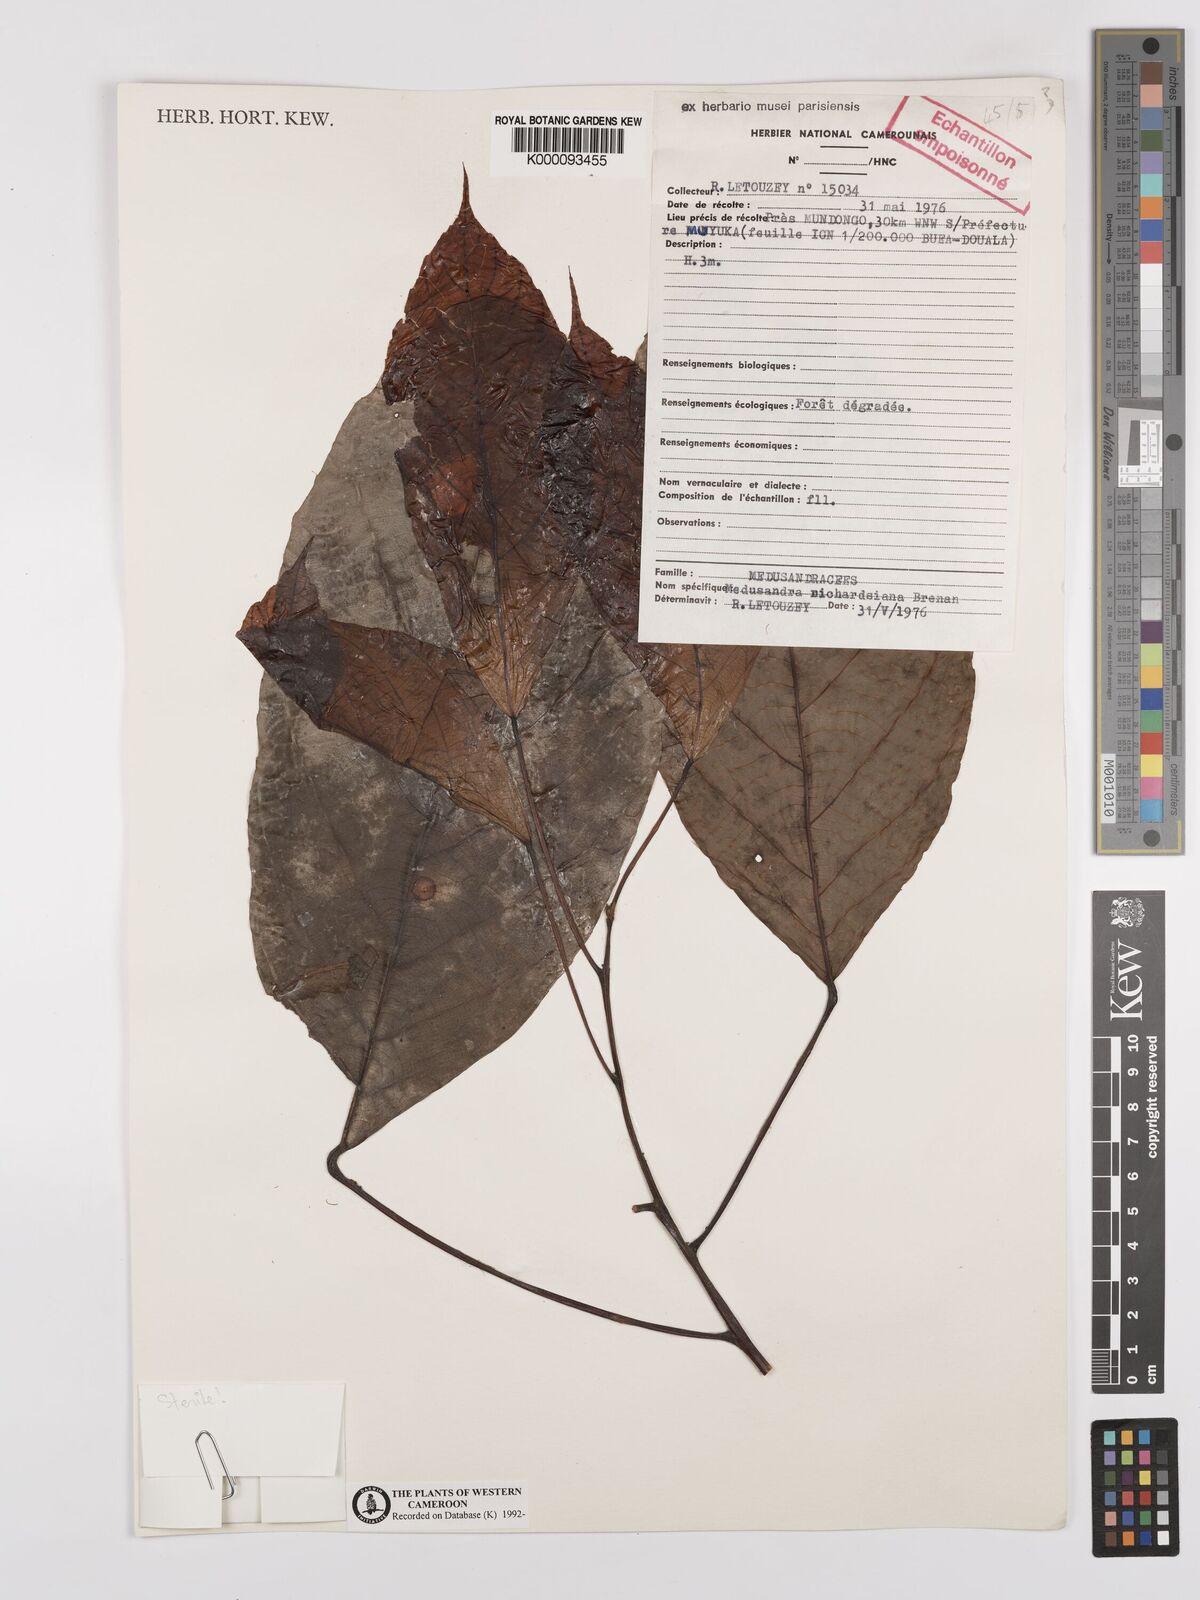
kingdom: Plantae
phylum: Tracheophyta
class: Magnoliopsida
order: Saxifragales
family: Peridiscaceae
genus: Medusandra
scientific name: Medusandra richardsiana
